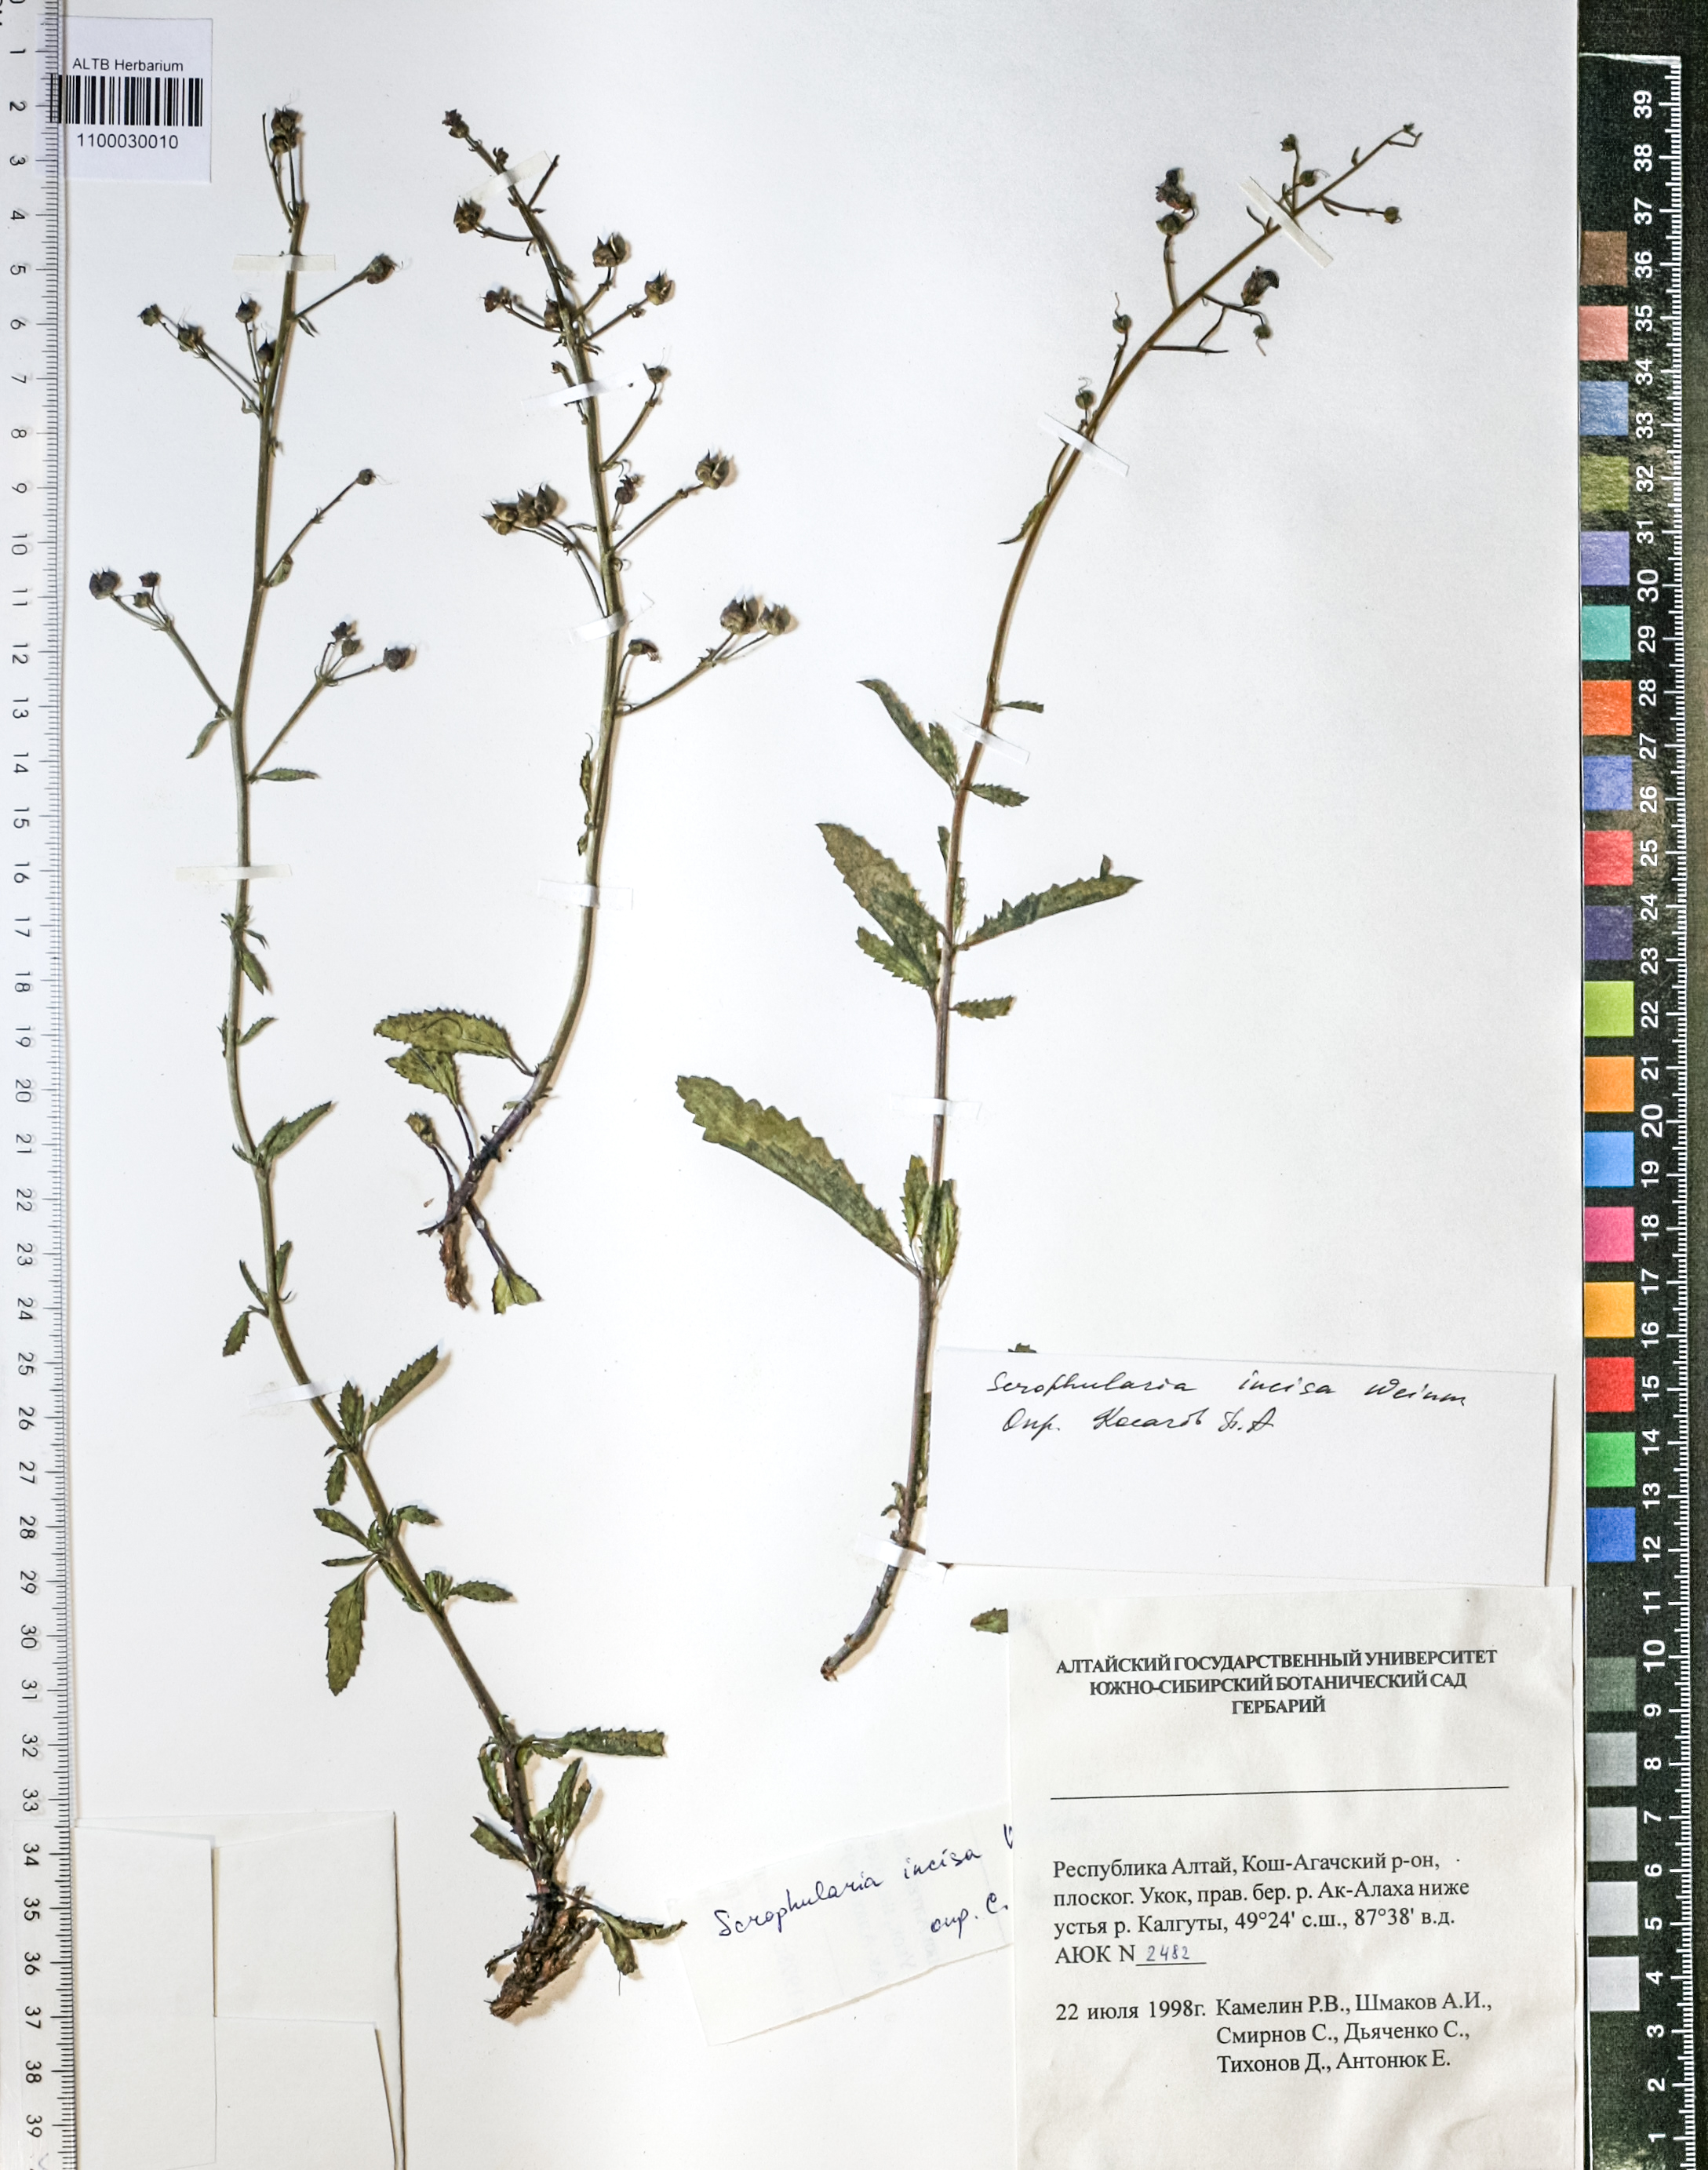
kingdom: Plantae
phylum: Tracheophyta
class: Magnoliopsida
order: Lamiales
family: Scrophulariaceae
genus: Scrophularia
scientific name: Scrophularia incisa
